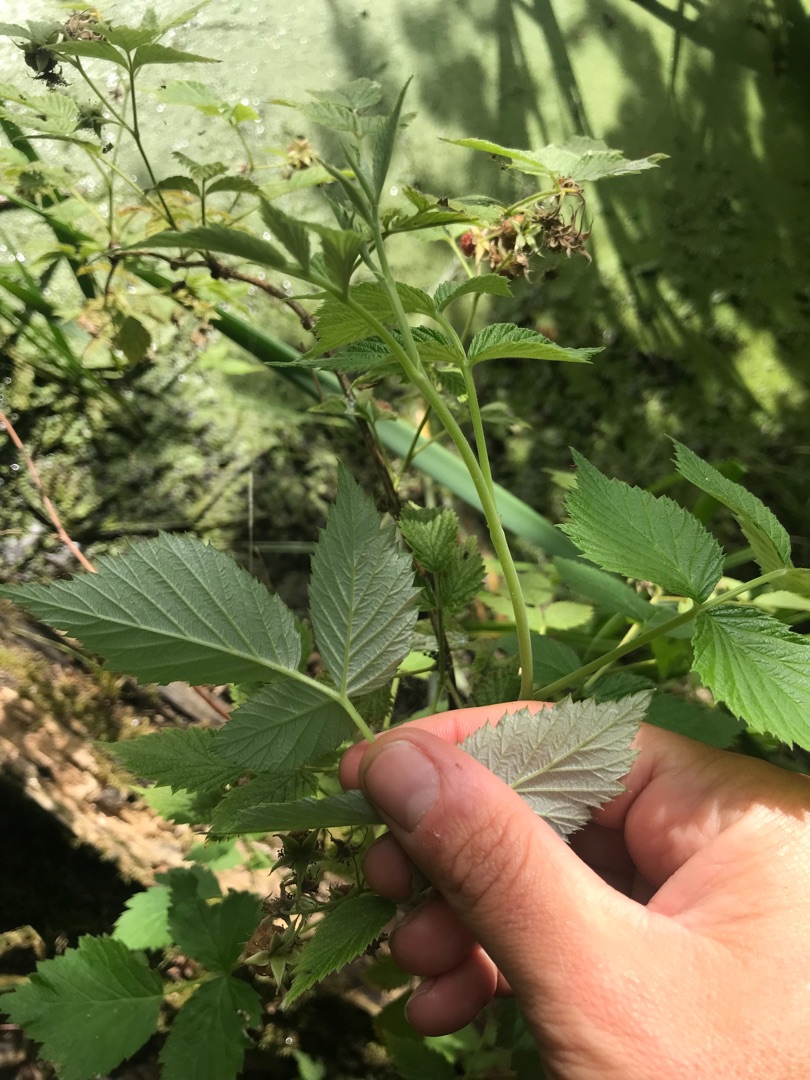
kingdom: Plantae
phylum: Tracheophyta
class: Magnoliopsida
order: Rosales
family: Rosaceae
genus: Rubus
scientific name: Rubus idaeus
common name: Hindbær
